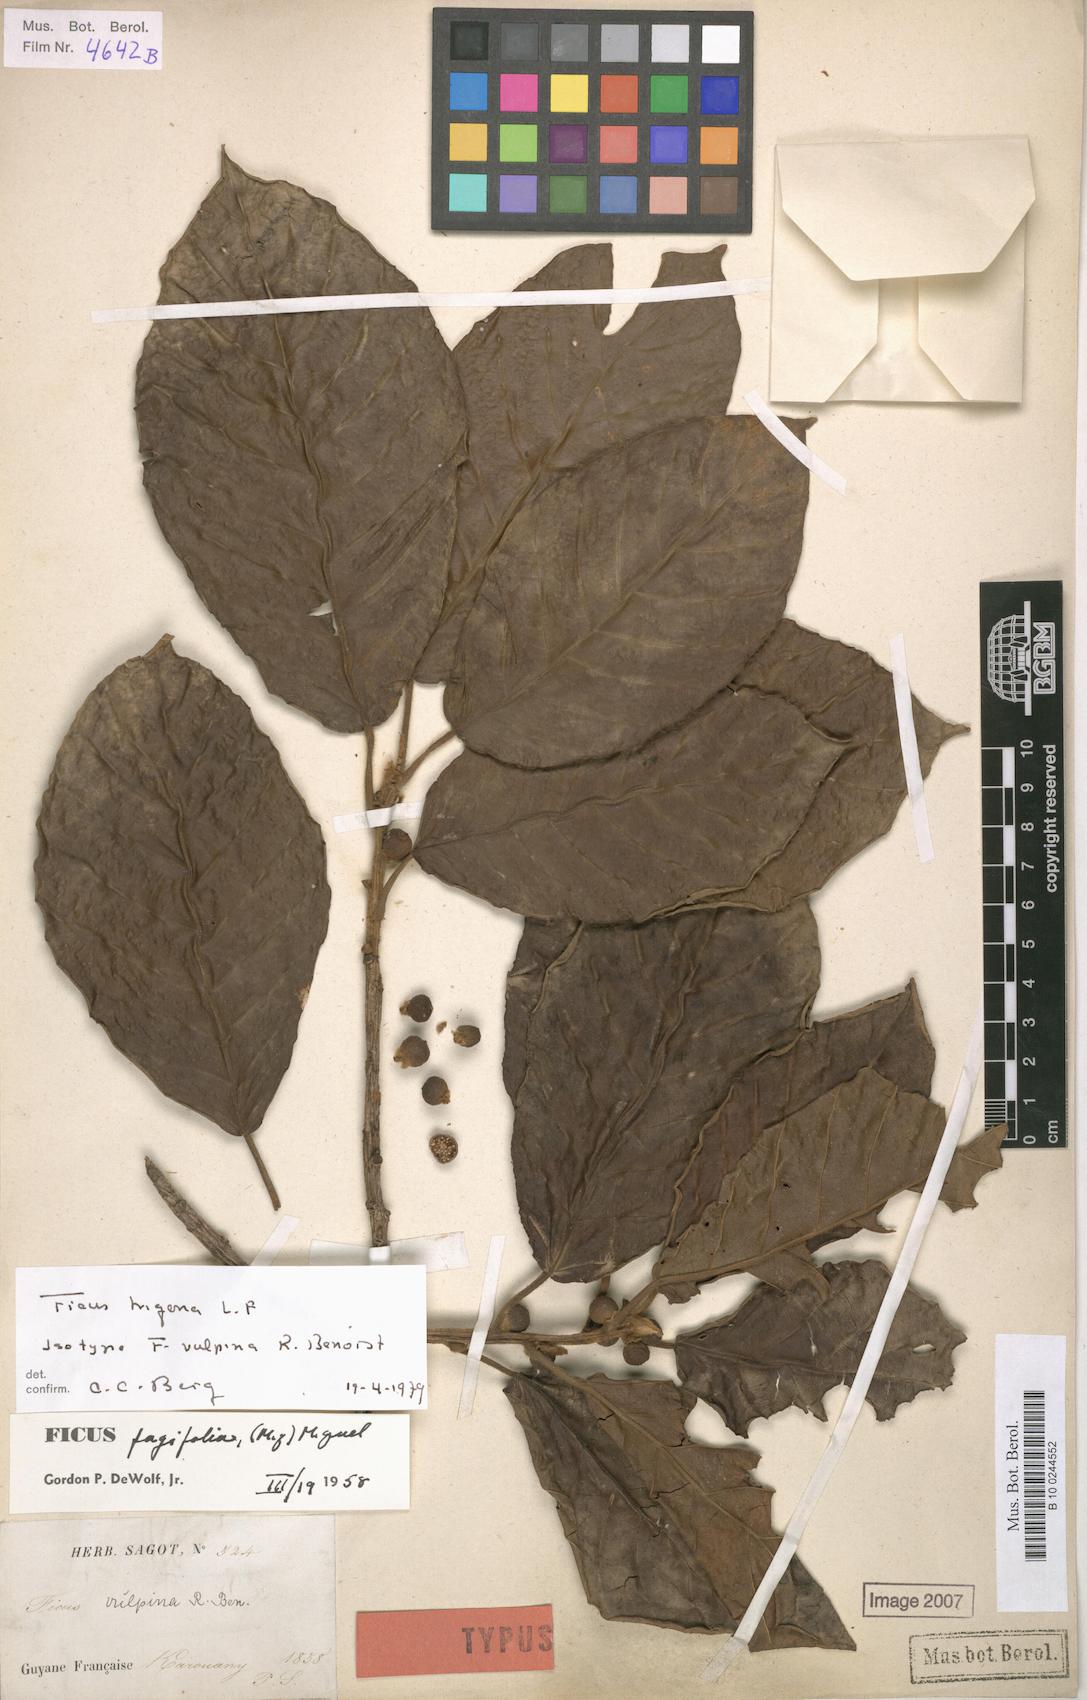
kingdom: Plantae
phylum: Tracheophyta
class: Magnoliopsida
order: Rosales
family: Moraceae
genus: Ficus
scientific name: Ficus trigona
